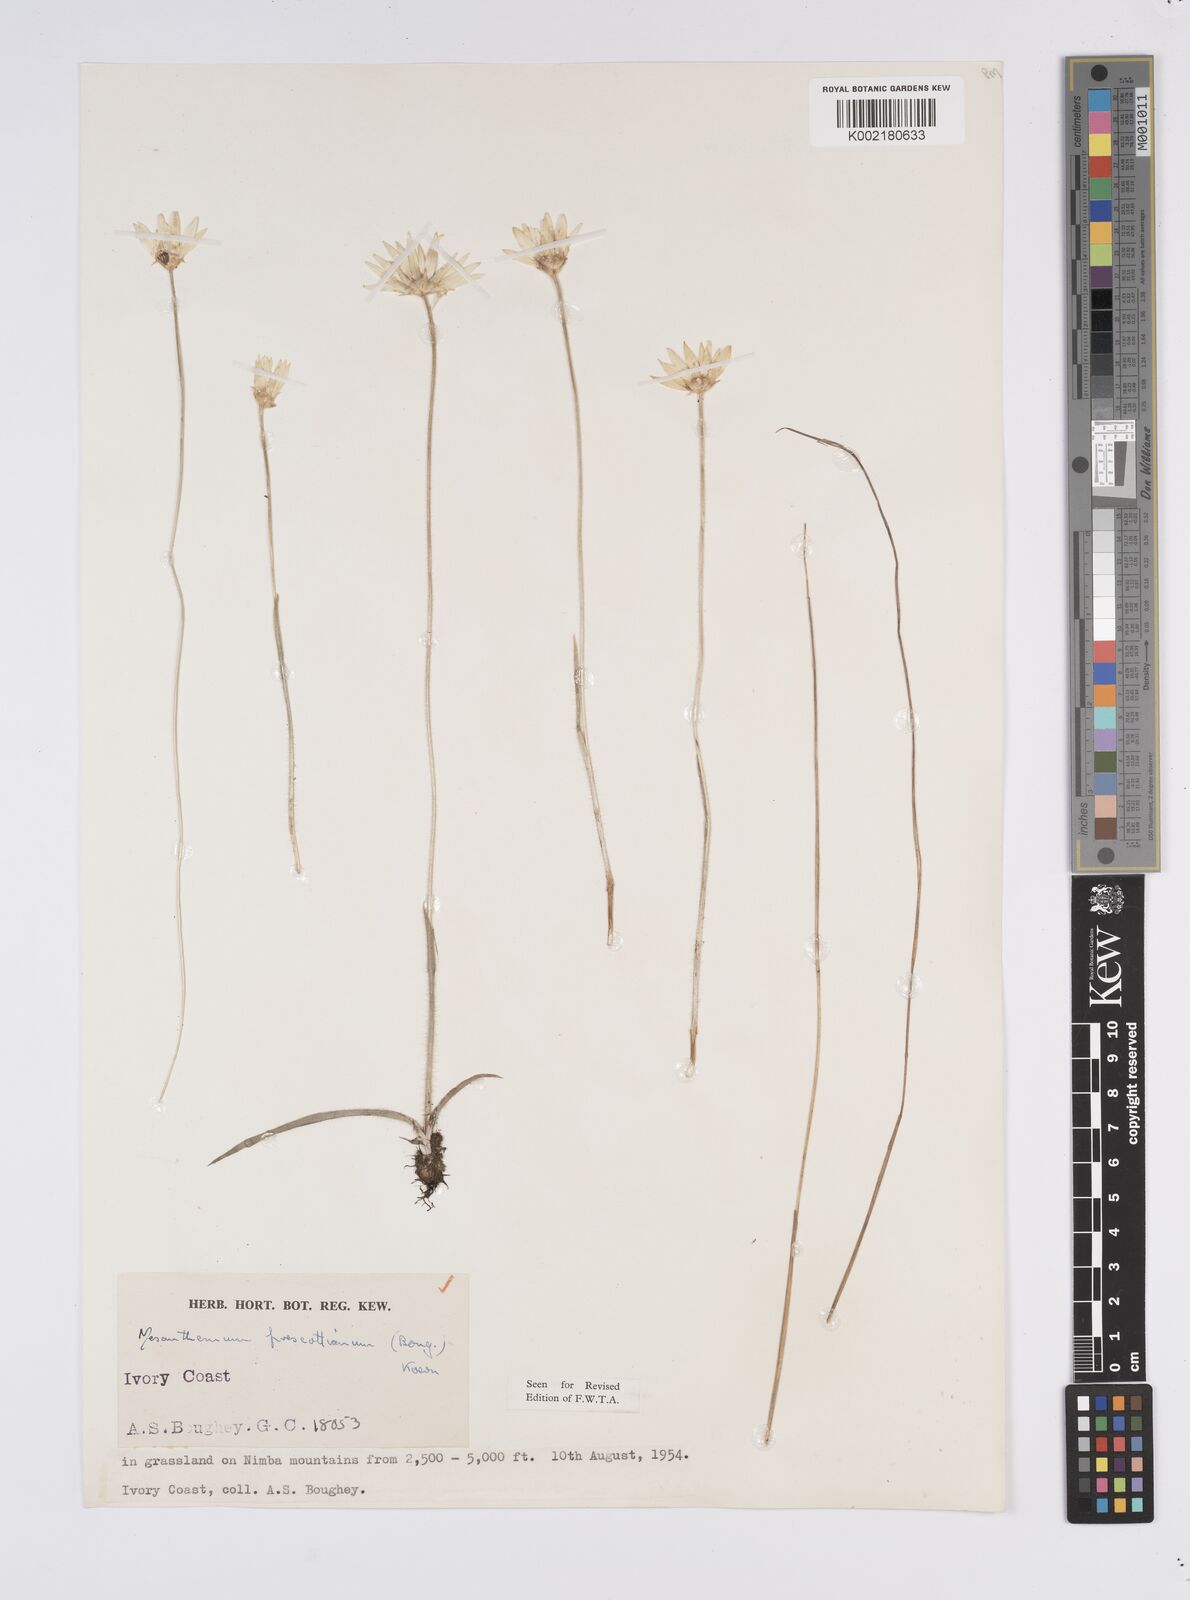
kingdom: Plantae
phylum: Tracheophyta
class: Liliopsida
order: Poales
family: Eriocaulaceae
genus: Mesanthemum
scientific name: Mesanthemum prescottianum
